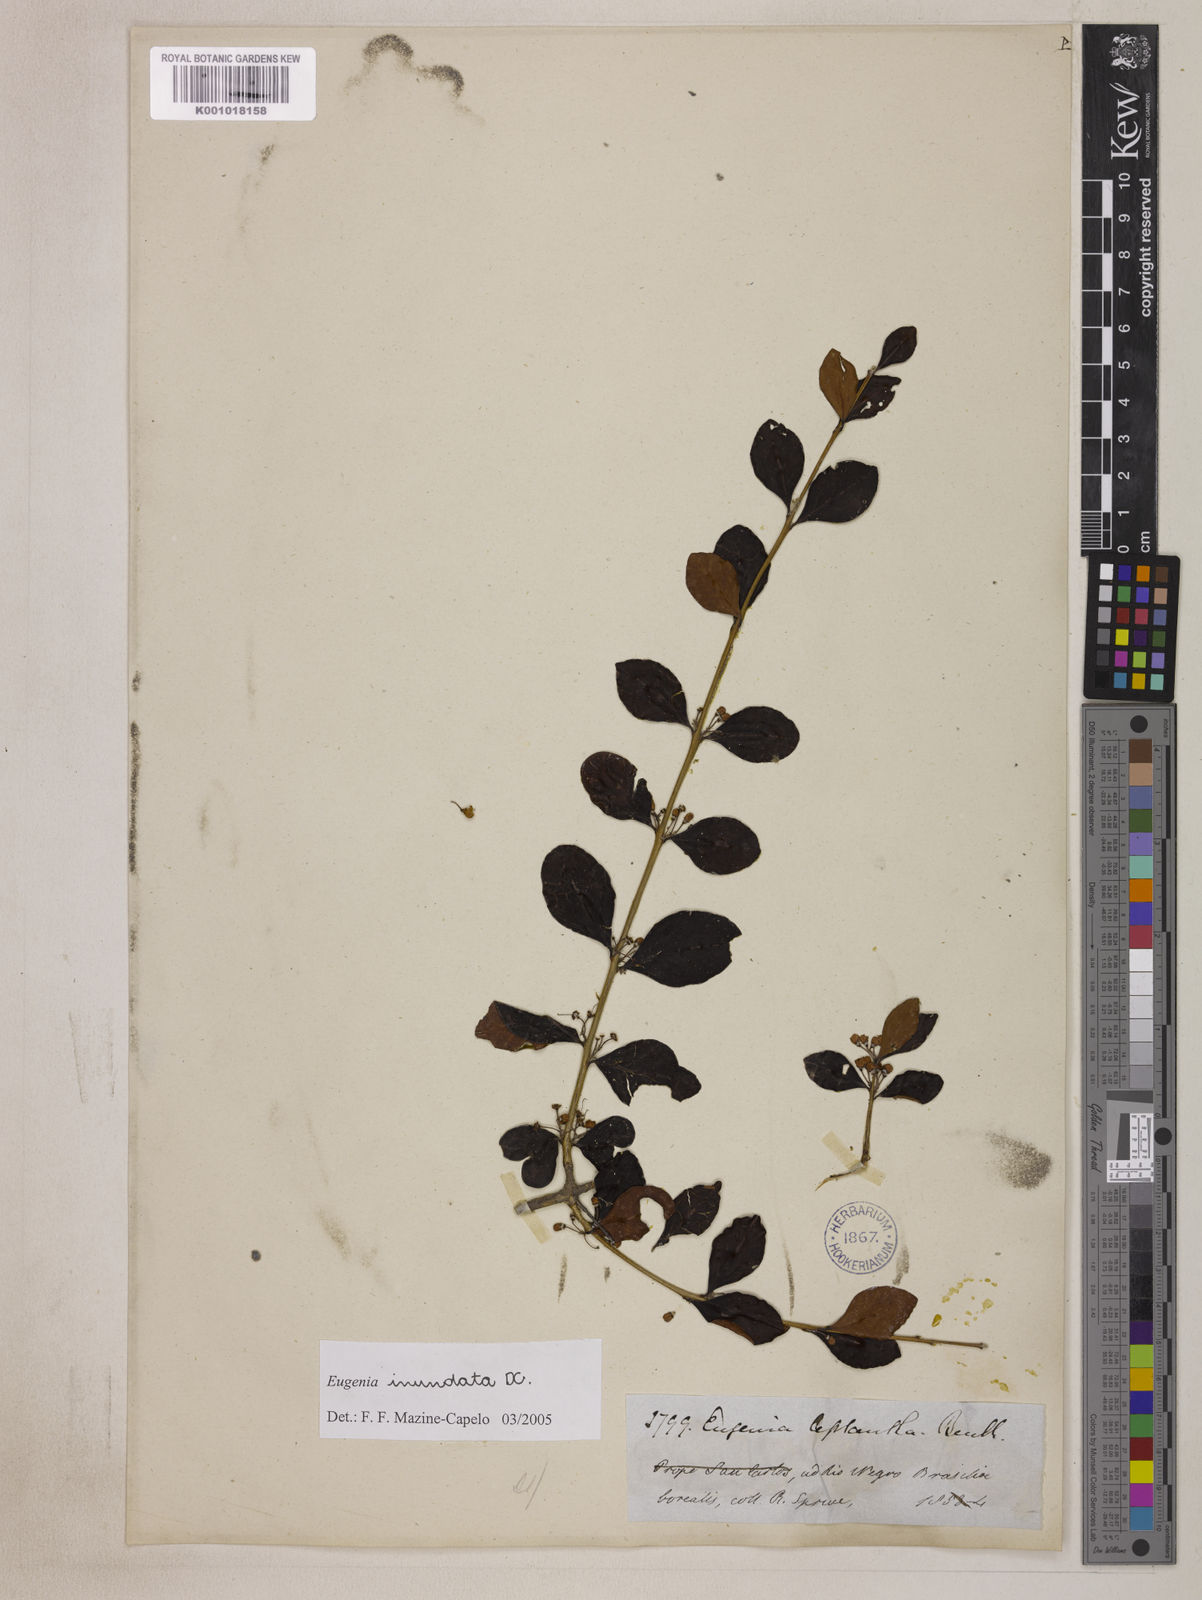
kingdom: Plantae
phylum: Tracheophyta
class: Magnoliopsida
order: Myrtales
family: Myrtaceae
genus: Eugenia
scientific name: Eugenia inundata
